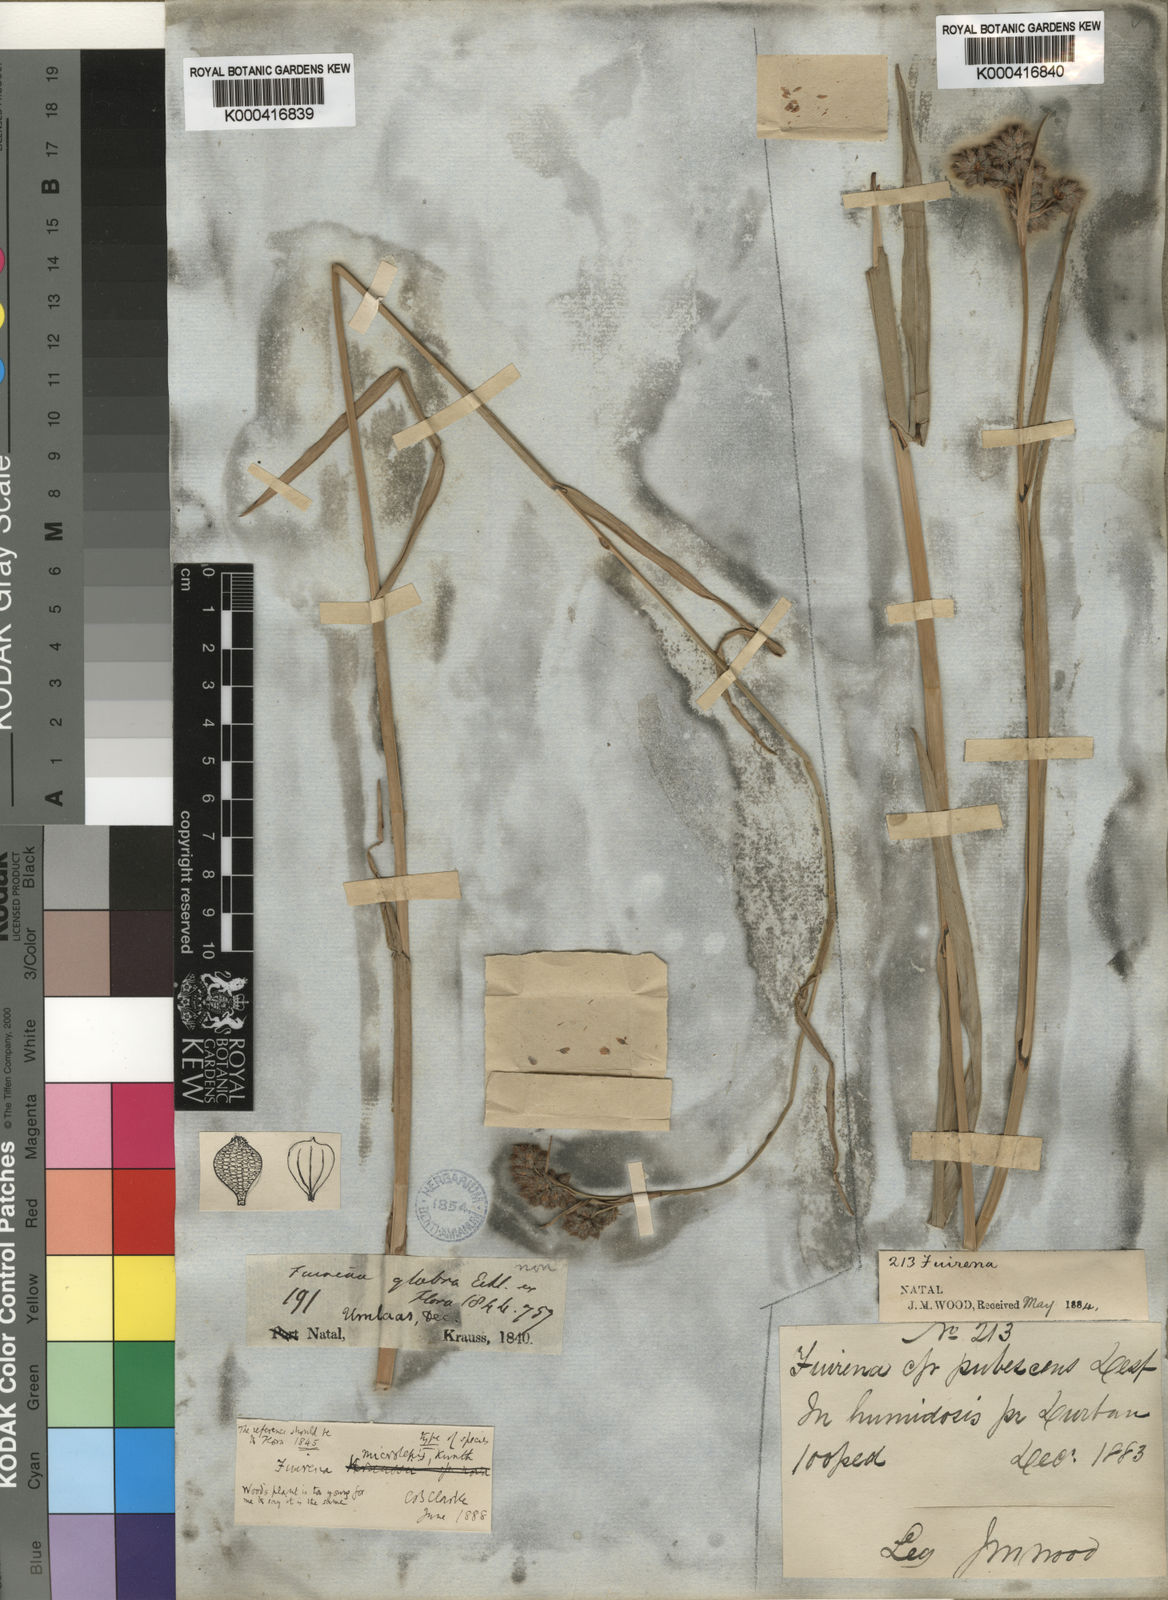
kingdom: Plantae
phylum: Tracheophyta
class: Liliopsida
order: Poales
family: Cyperaceae
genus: Fuirena
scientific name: Fuirena obcordata
